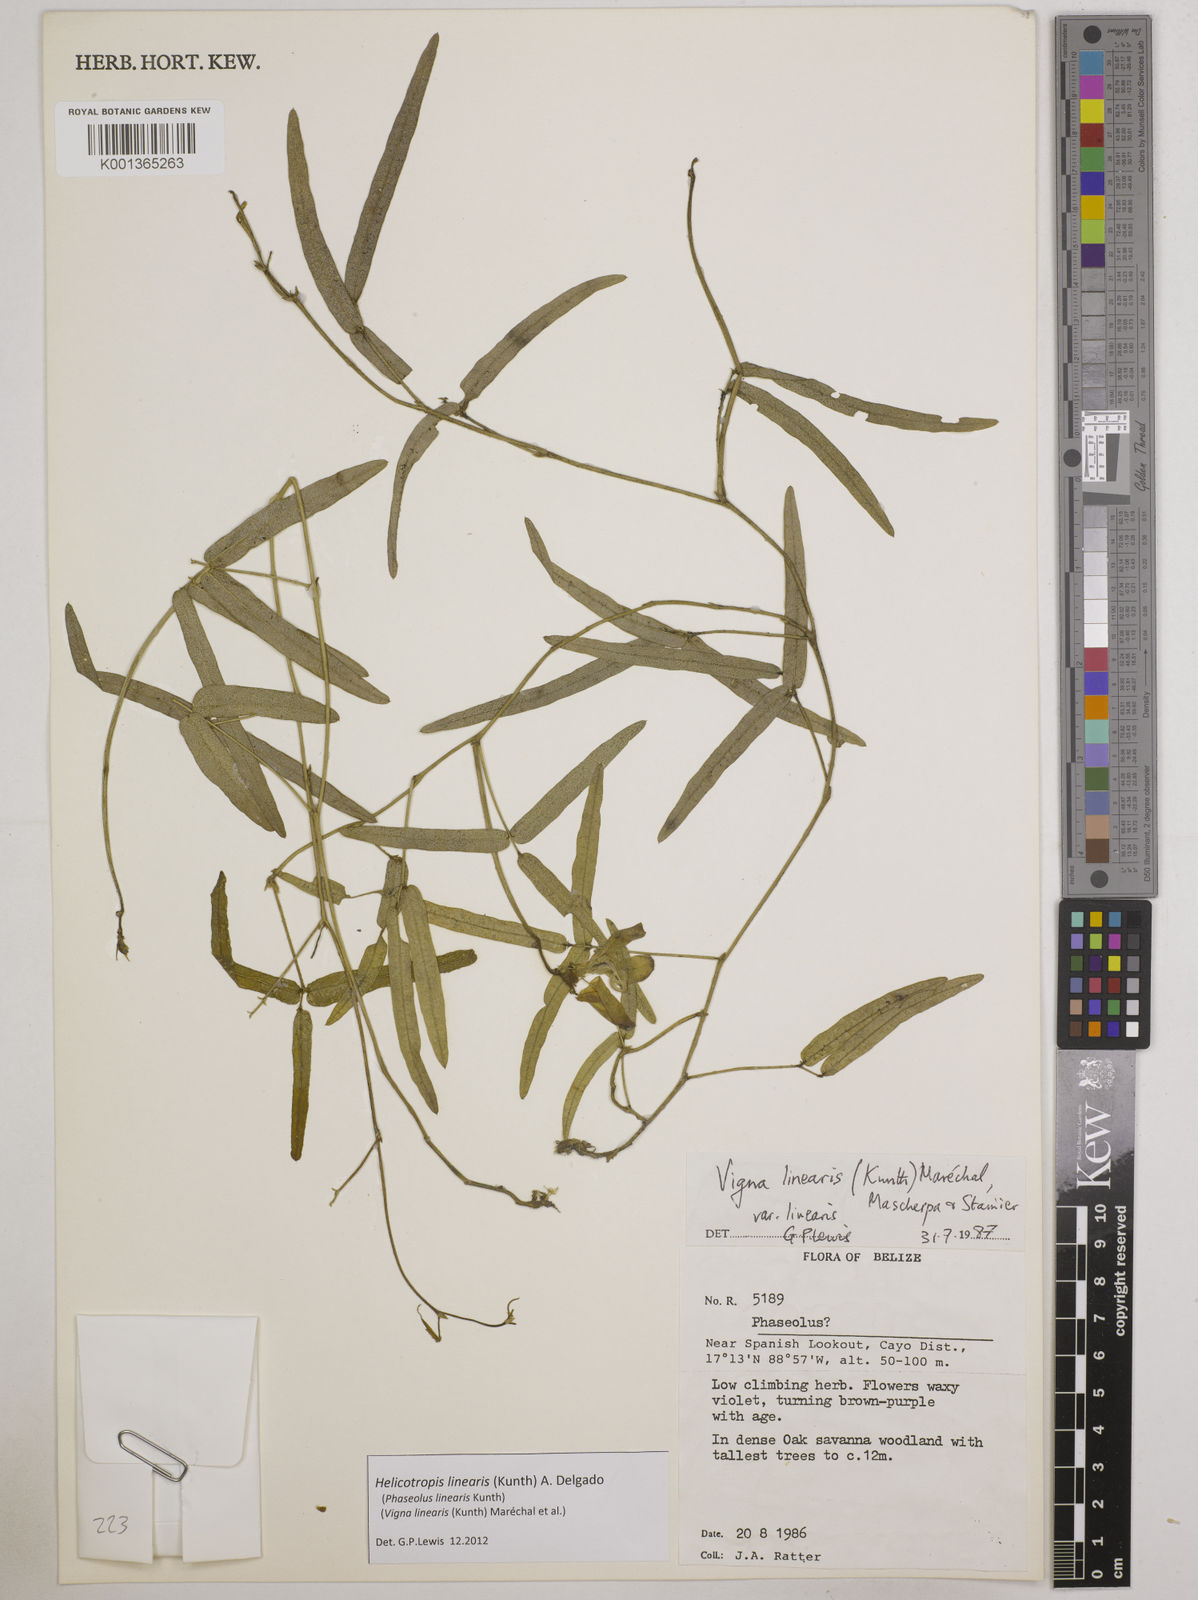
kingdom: Plantae
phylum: Tracheophyta
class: Magnoliopsida
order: Fabales
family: Fabaceae
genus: Helicotropis
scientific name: Helicotropis linearis
